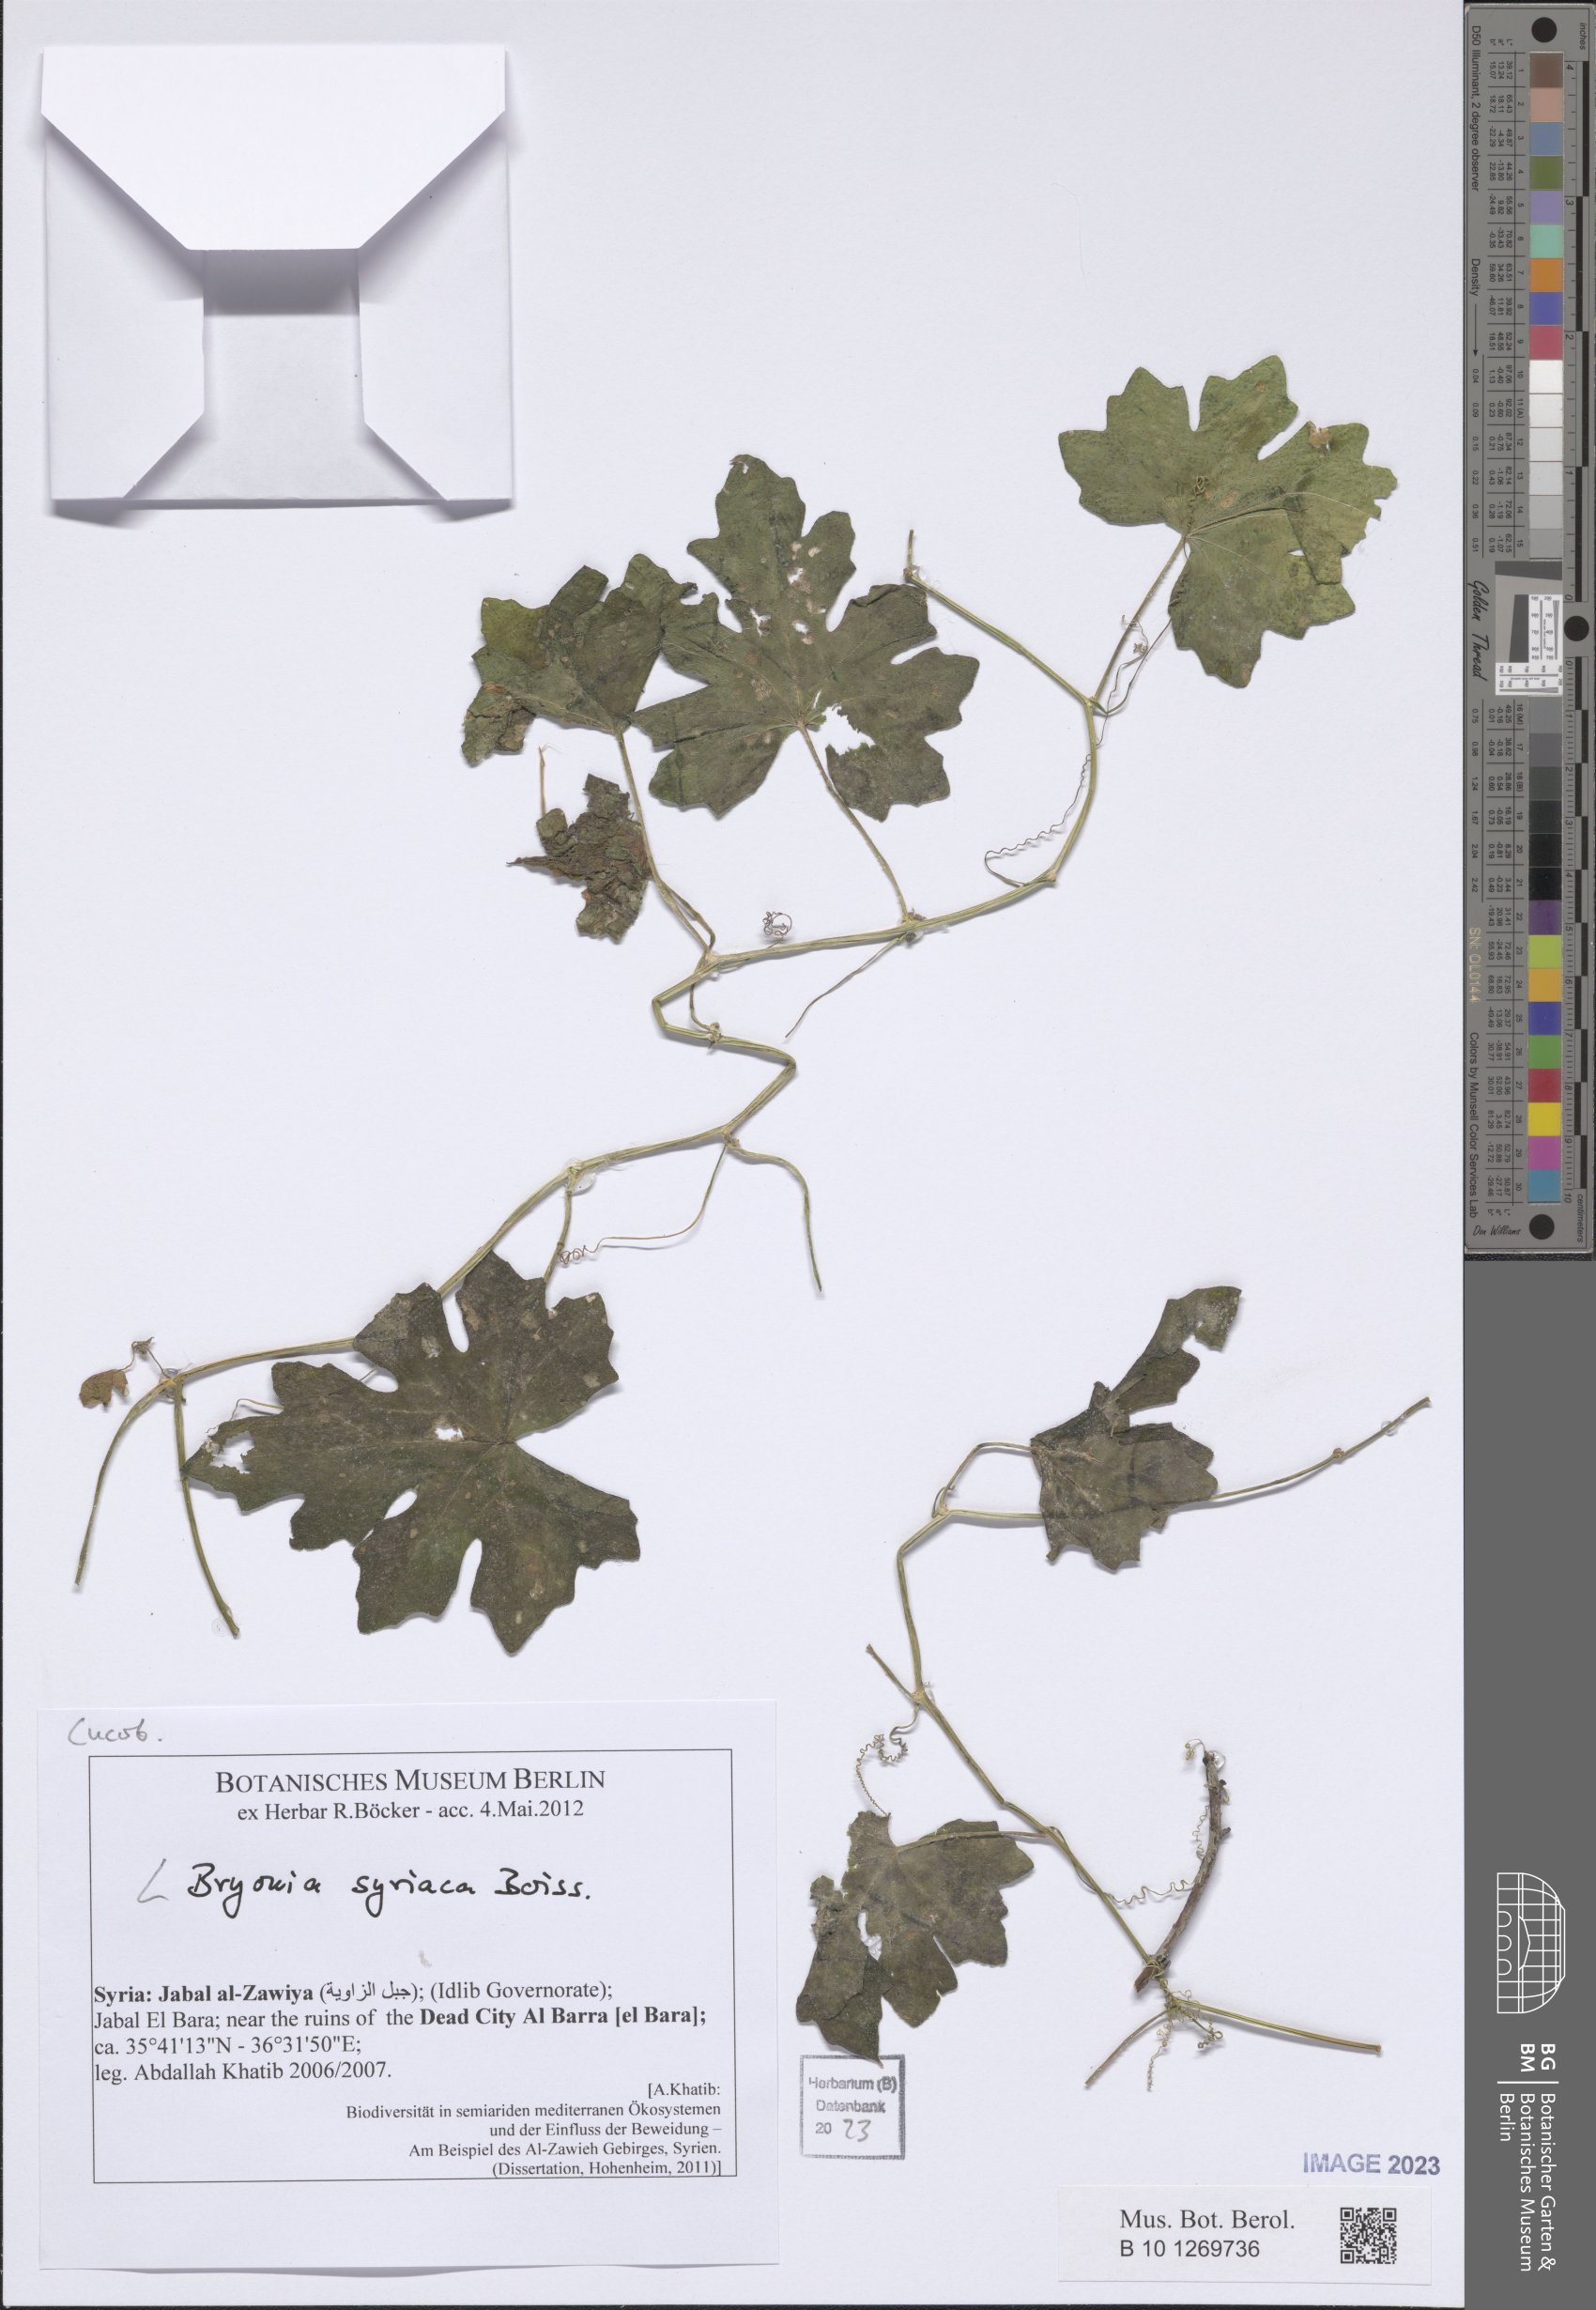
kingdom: Plantae
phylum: Tracheophyta
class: Magnoliopsida
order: Cucurbitales
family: Cucurbitaceae
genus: Bryonia
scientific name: Bryonia syriaca
